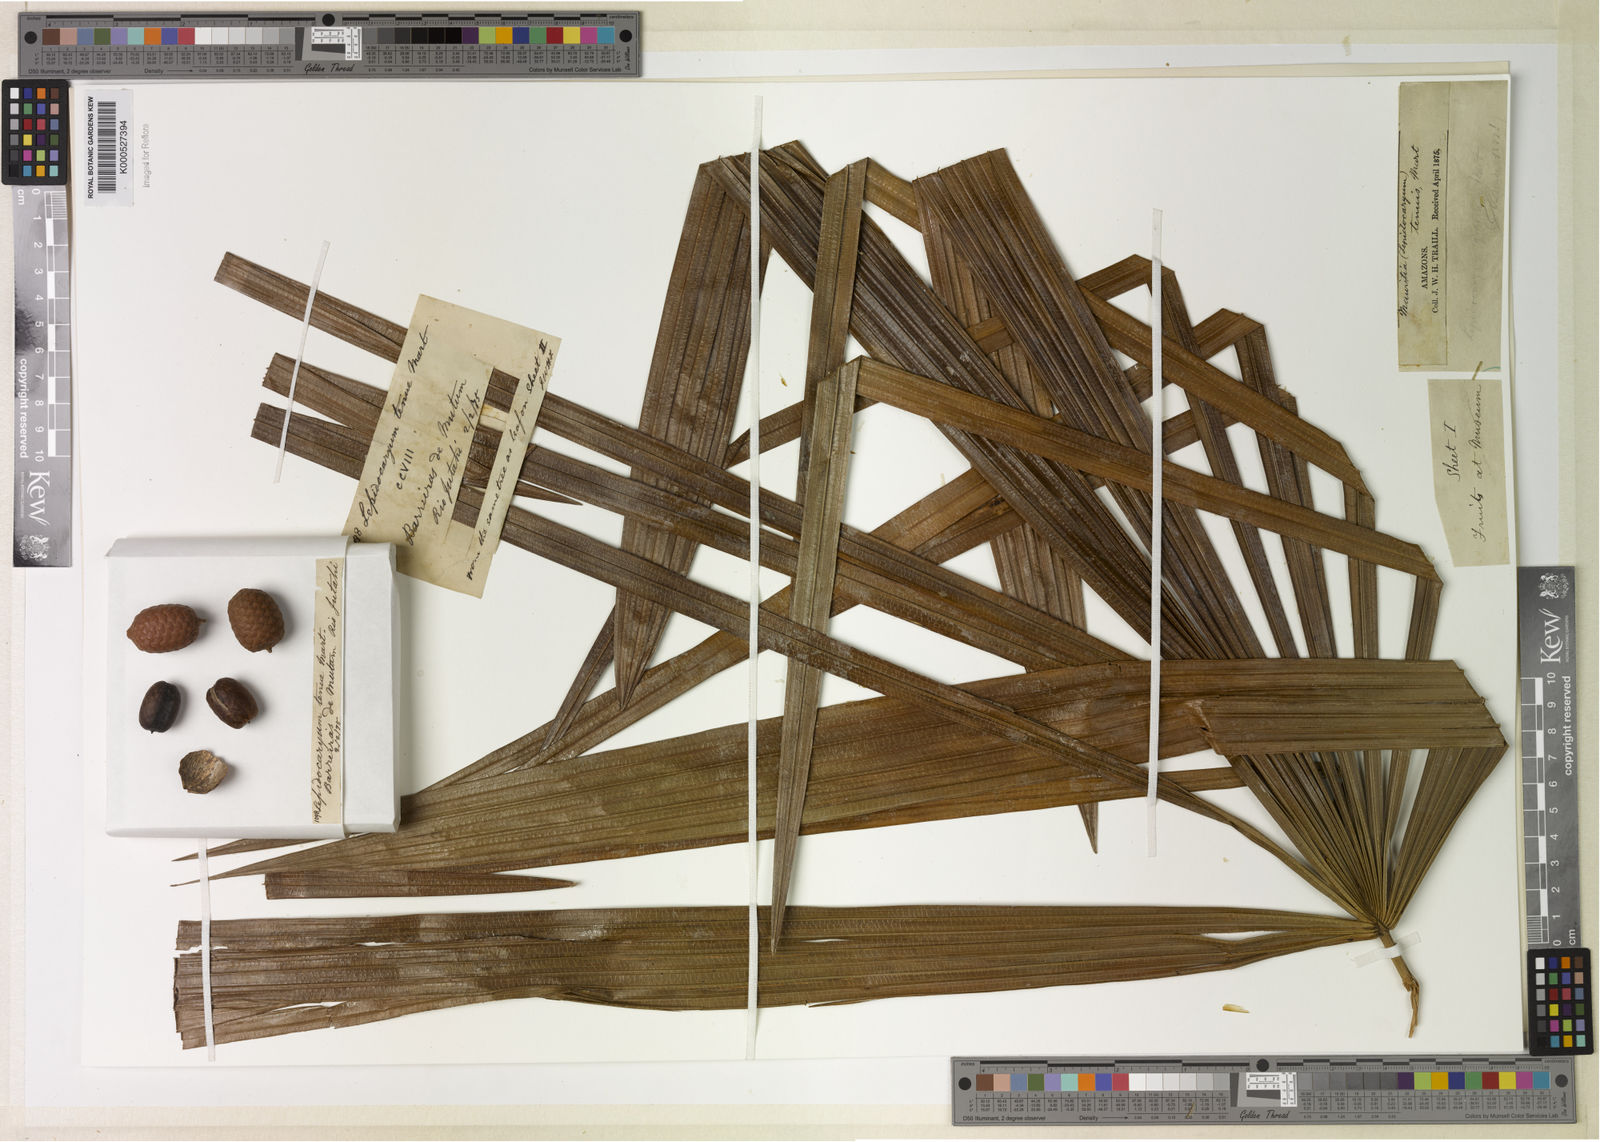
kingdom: Plantae
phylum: Tracheophyta
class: Liliopsida
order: Arecales
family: Arecaceae
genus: Lepidocaryum
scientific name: Lepidocaryum tenue
